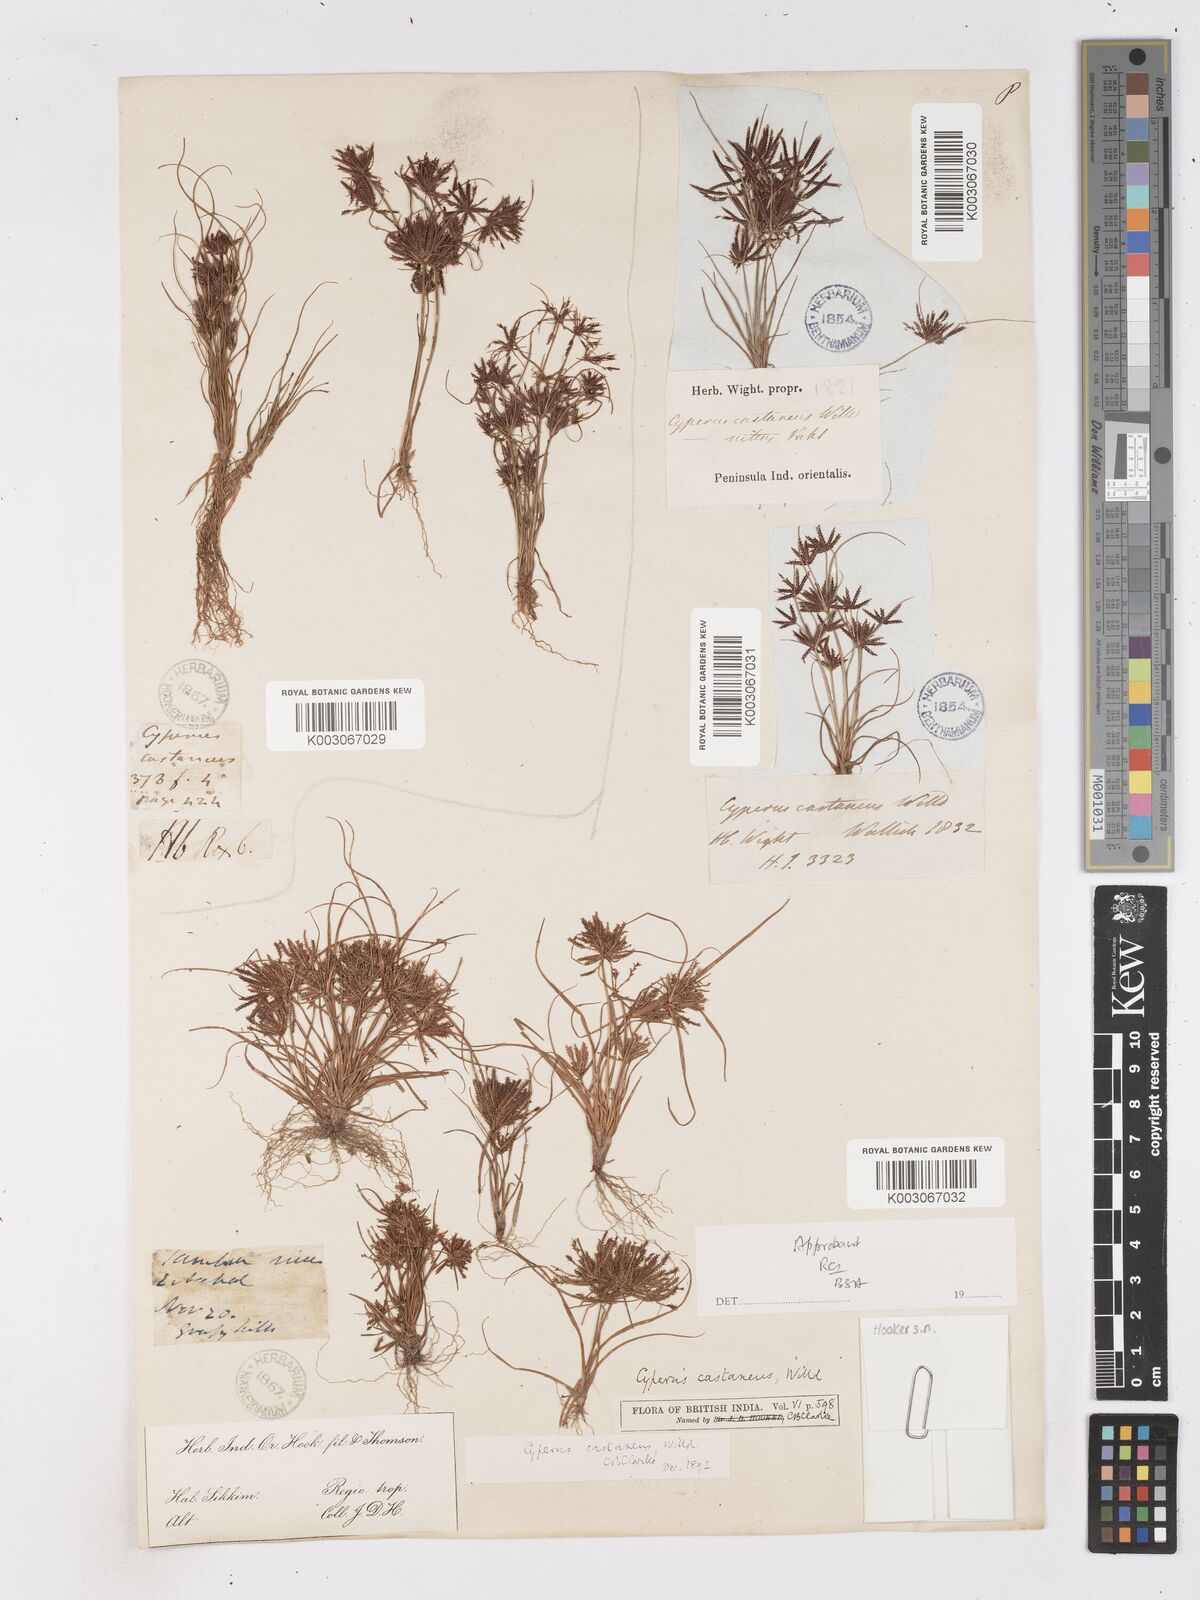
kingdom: Plantae
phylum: Tracheophyta
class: Liliopsida
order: Poales
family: Cyperaceae
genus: Cyperus
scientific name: Cyperus castaneus
